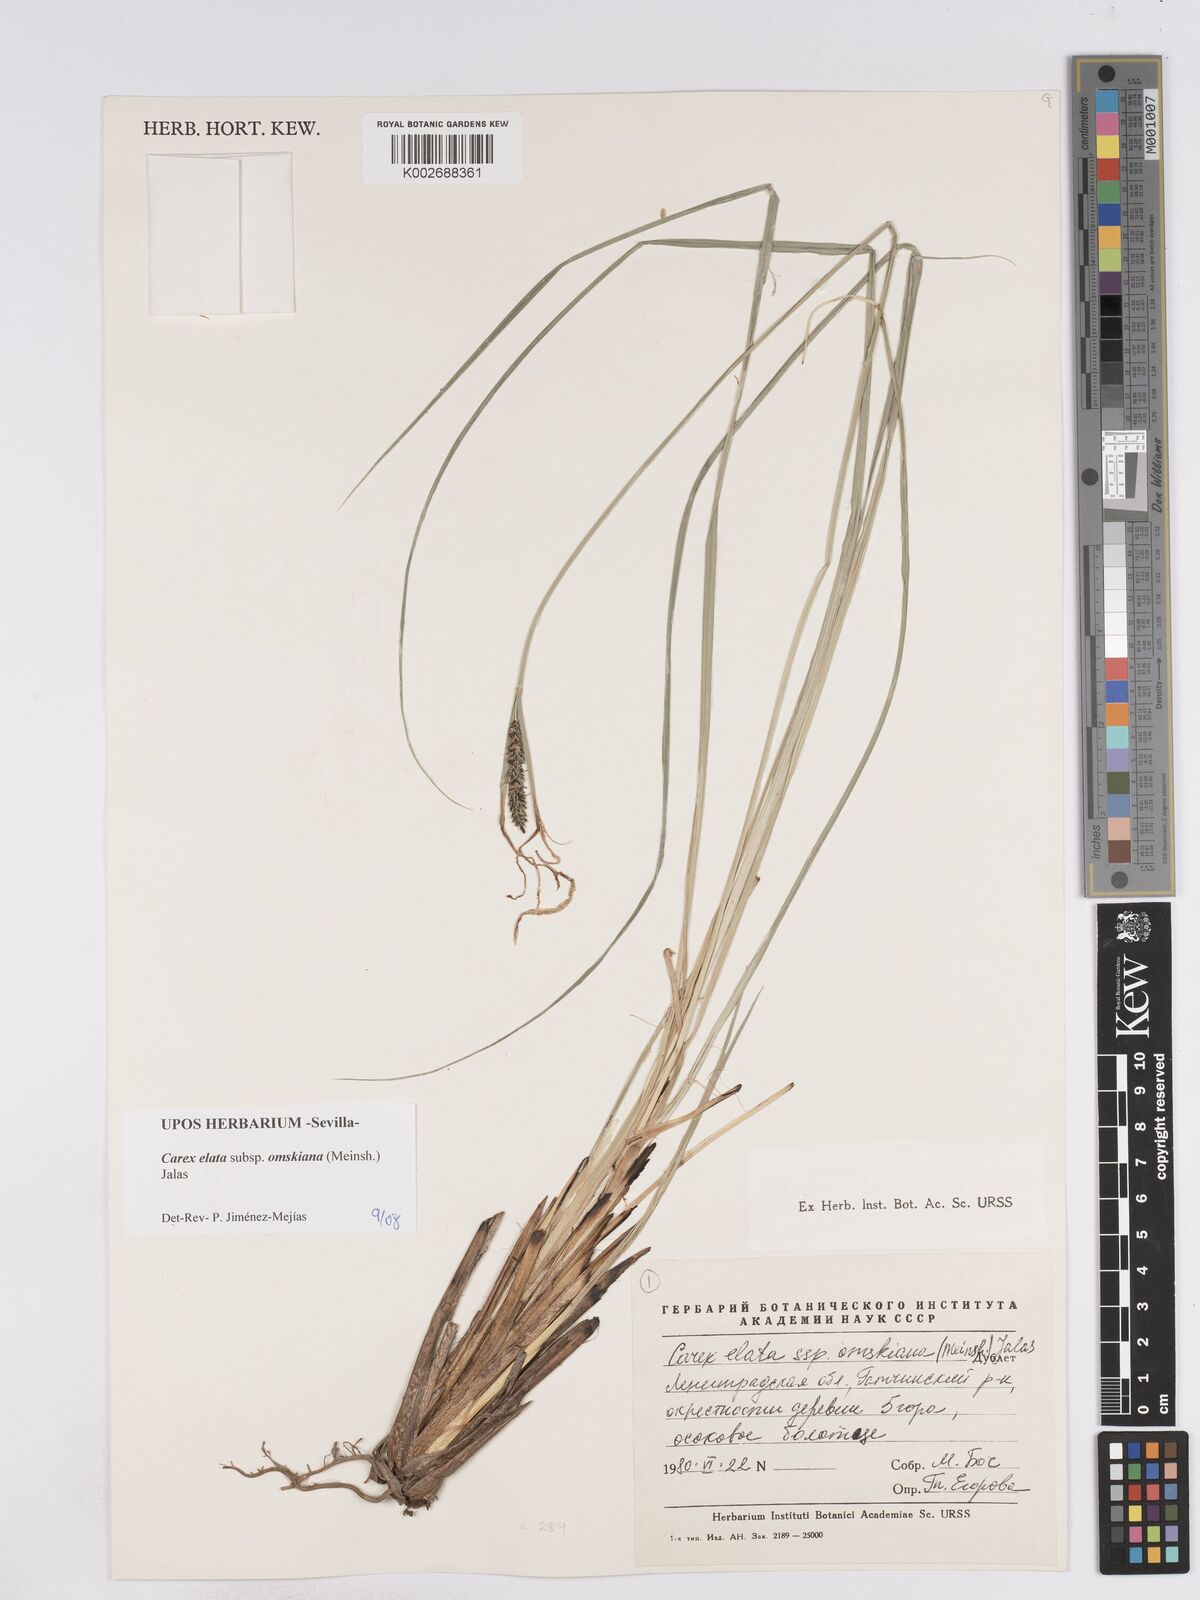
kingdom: Plantae
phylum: Tracheophyta
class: Liliopsida
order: Poales
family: Cyperaceae
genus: Carex
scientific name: Carex elata
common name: Tufted sedge
